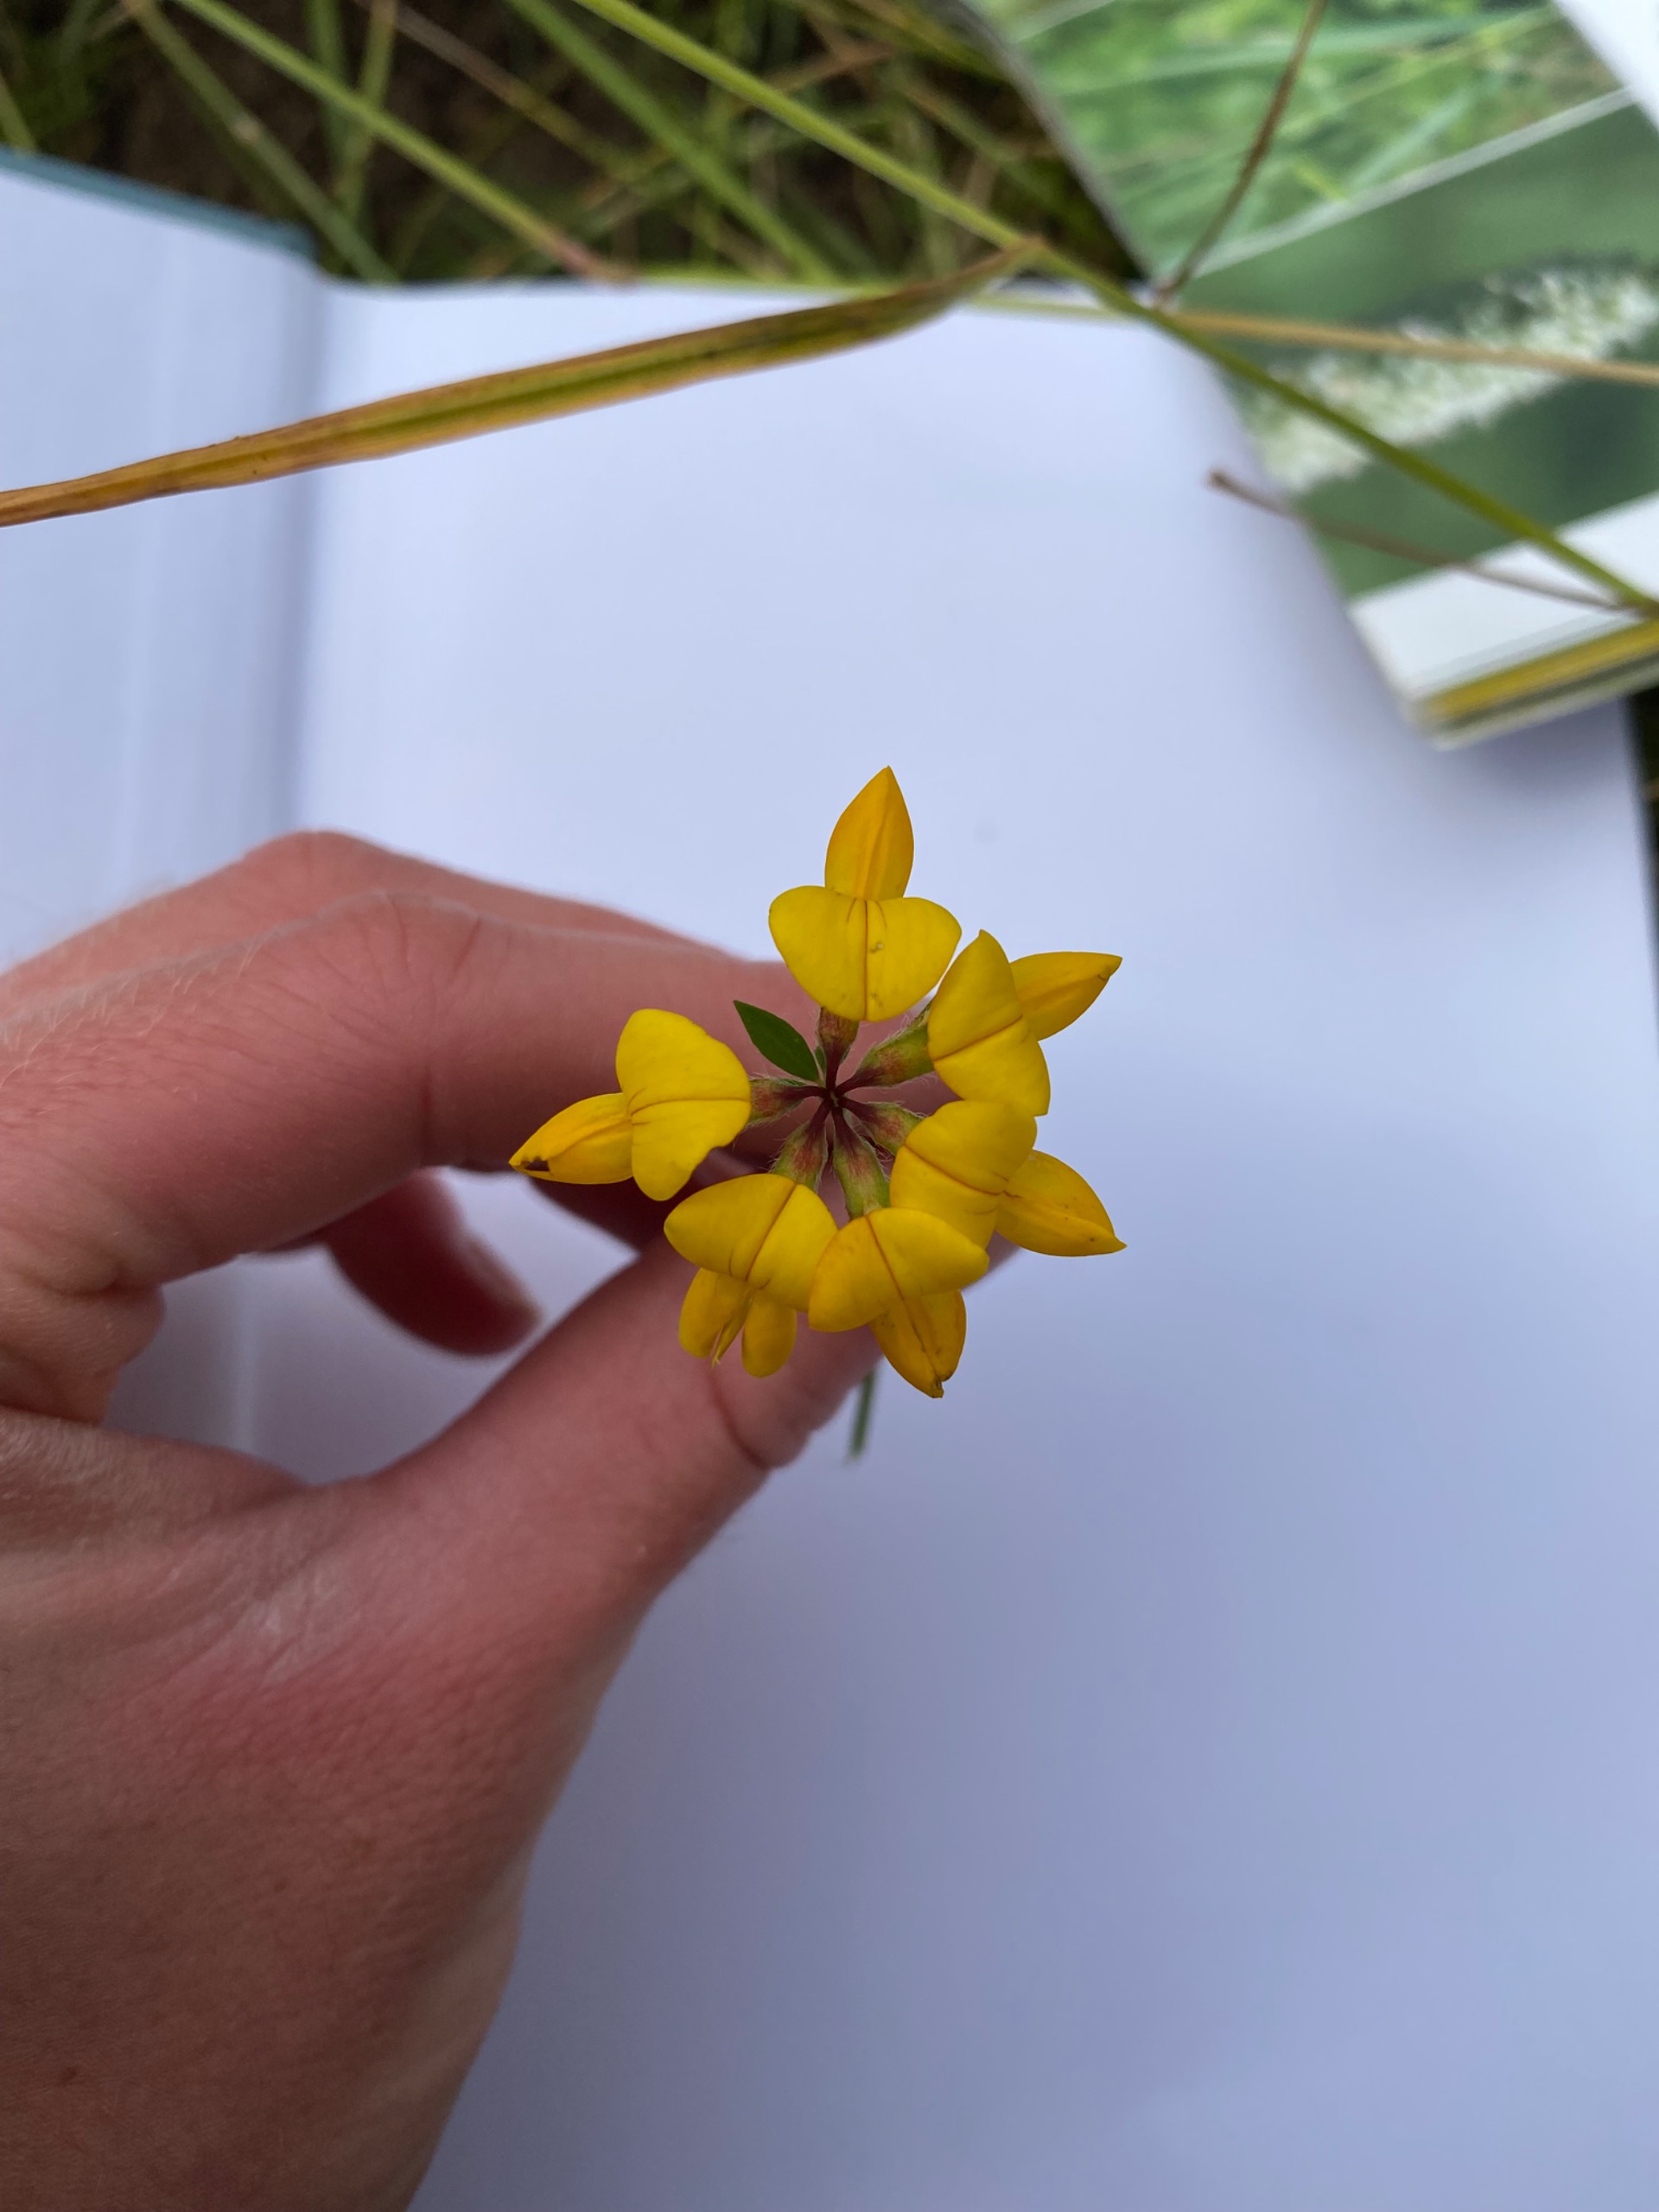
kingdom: Plantae
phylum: Tracheophyta
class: Magnoliopsida
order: Fabales
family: Fabaceae
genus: Lotus
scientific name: Lotus corniculatus
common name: Almindelig kællingetand
